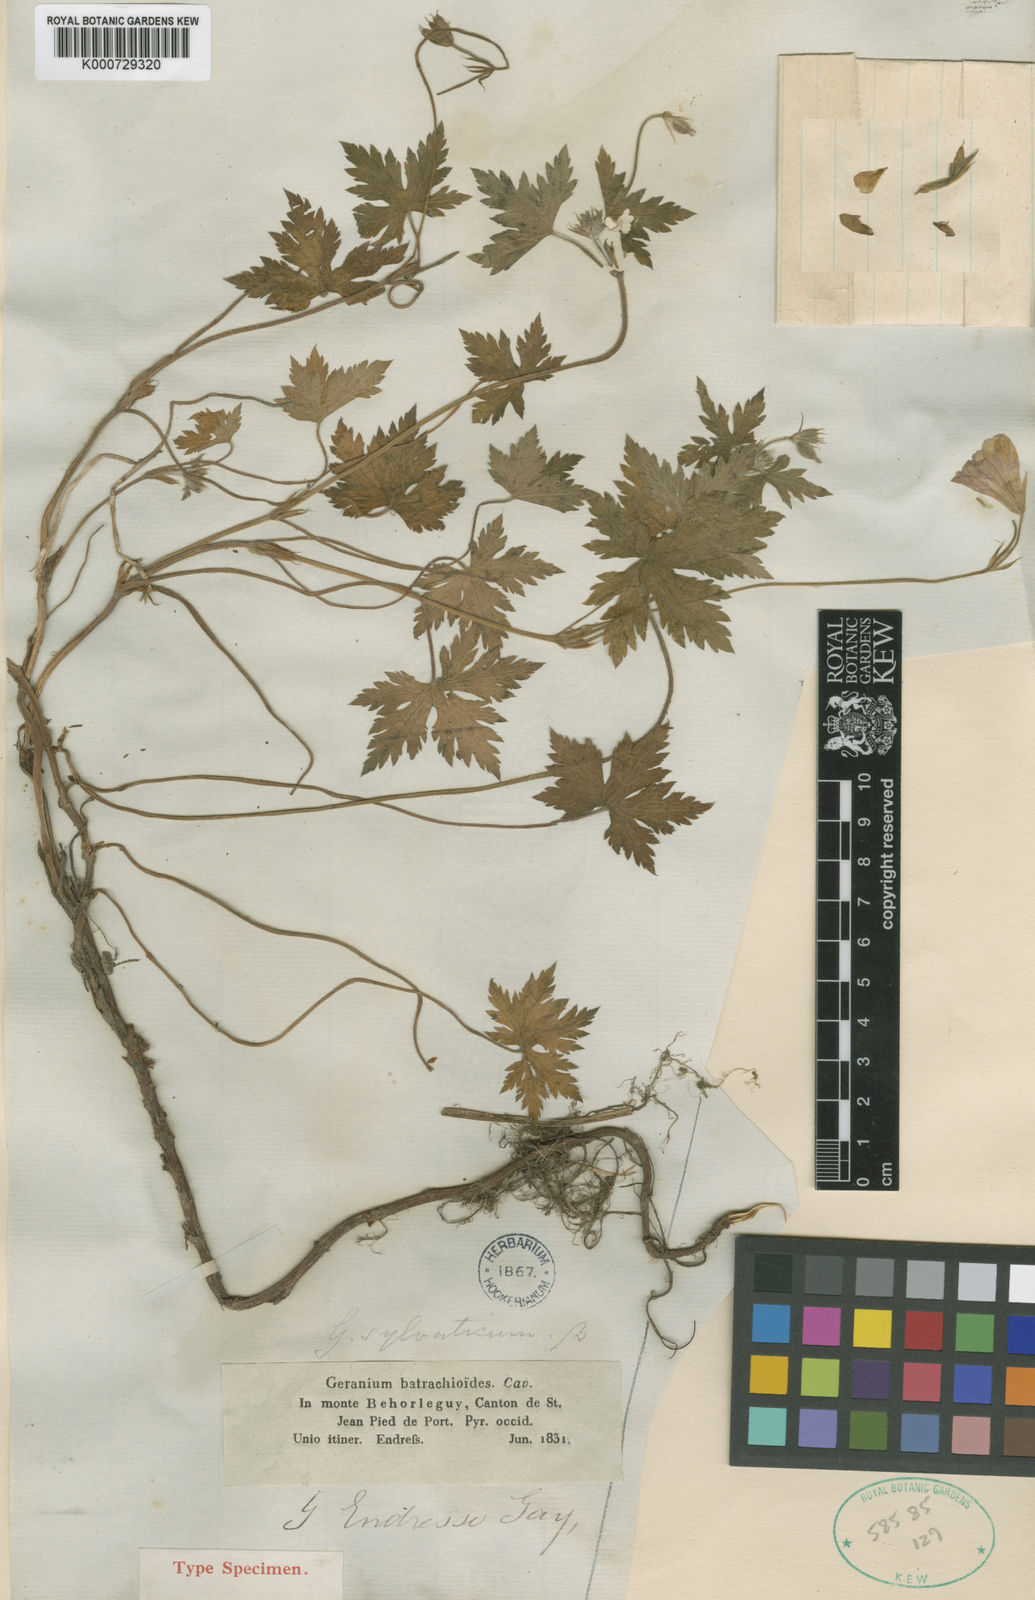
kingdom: Plantae
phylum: Tracheophyta
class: Magnoliopsida
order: Geraniales
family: Geraniaceae
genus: Geranium
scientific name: Geranium endressii
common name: French crane's-bill
